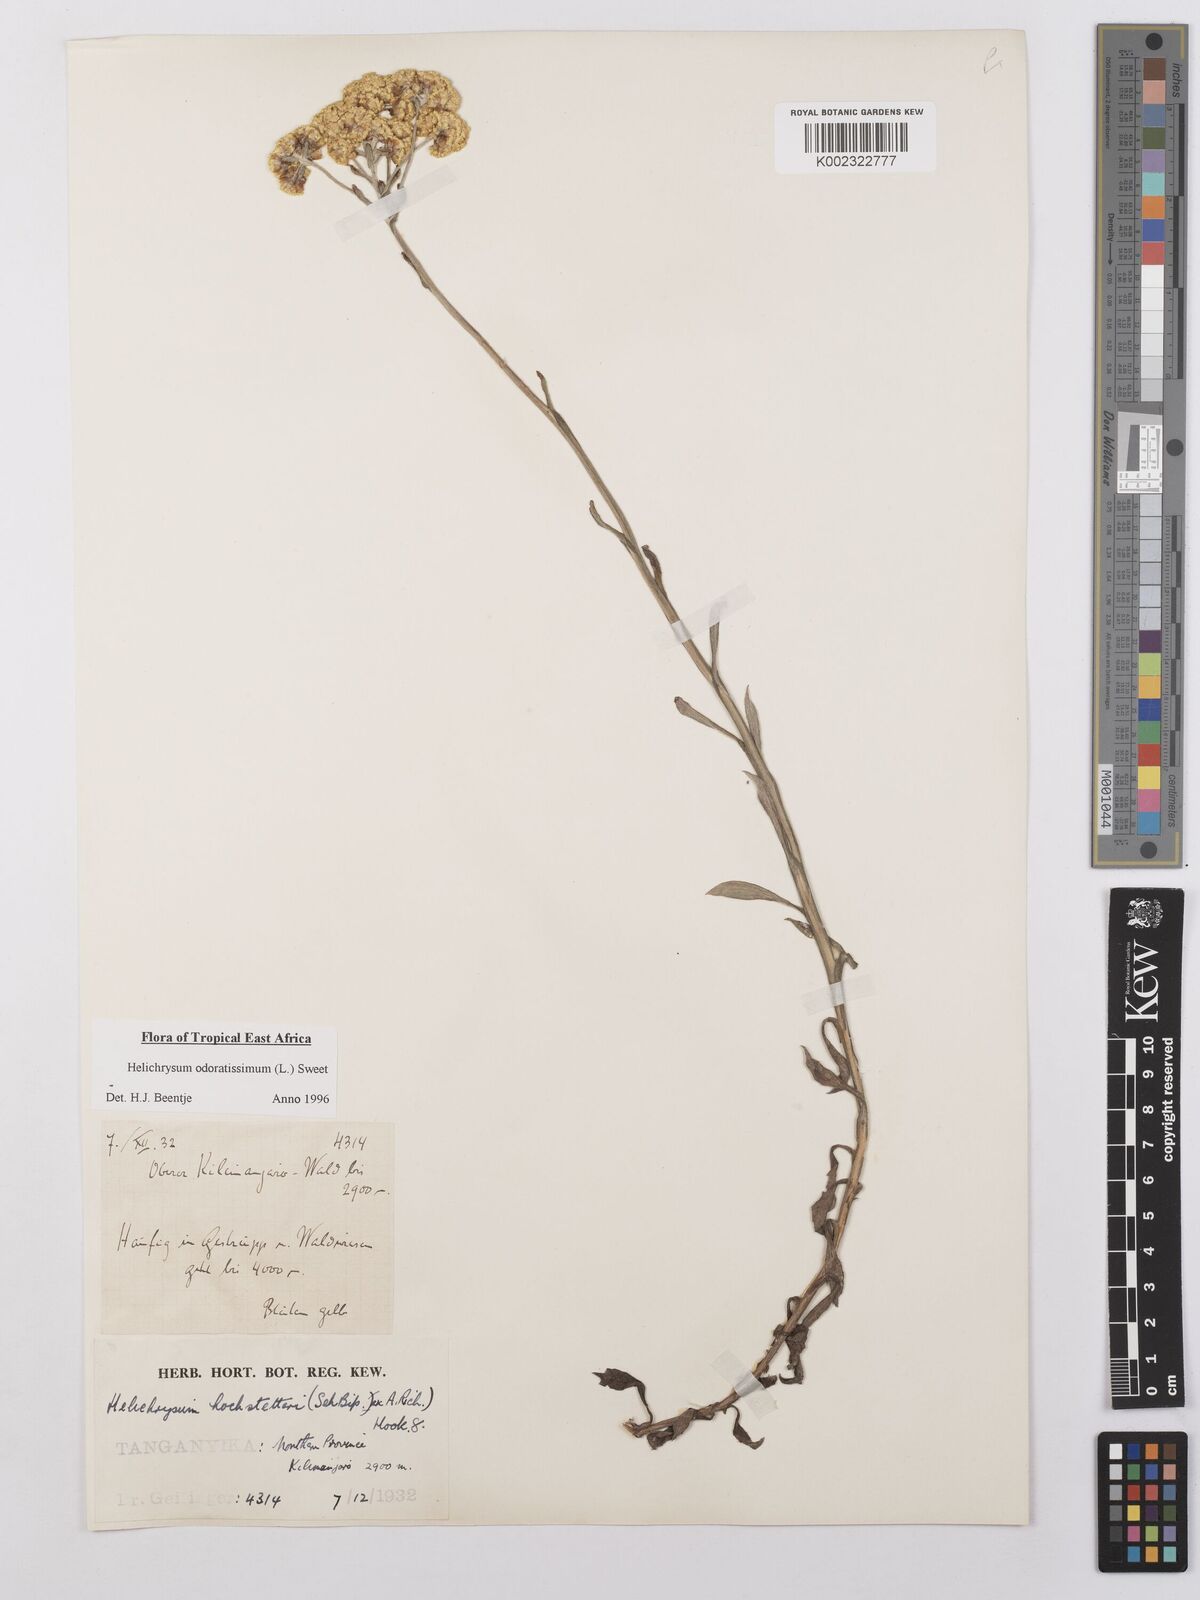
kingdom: Plantae
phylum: Tracheophyta
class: Magnoliopsida
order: Asterales
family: Asteraceae
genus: Helichrysum
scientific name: Helichrysum odoratissimum
